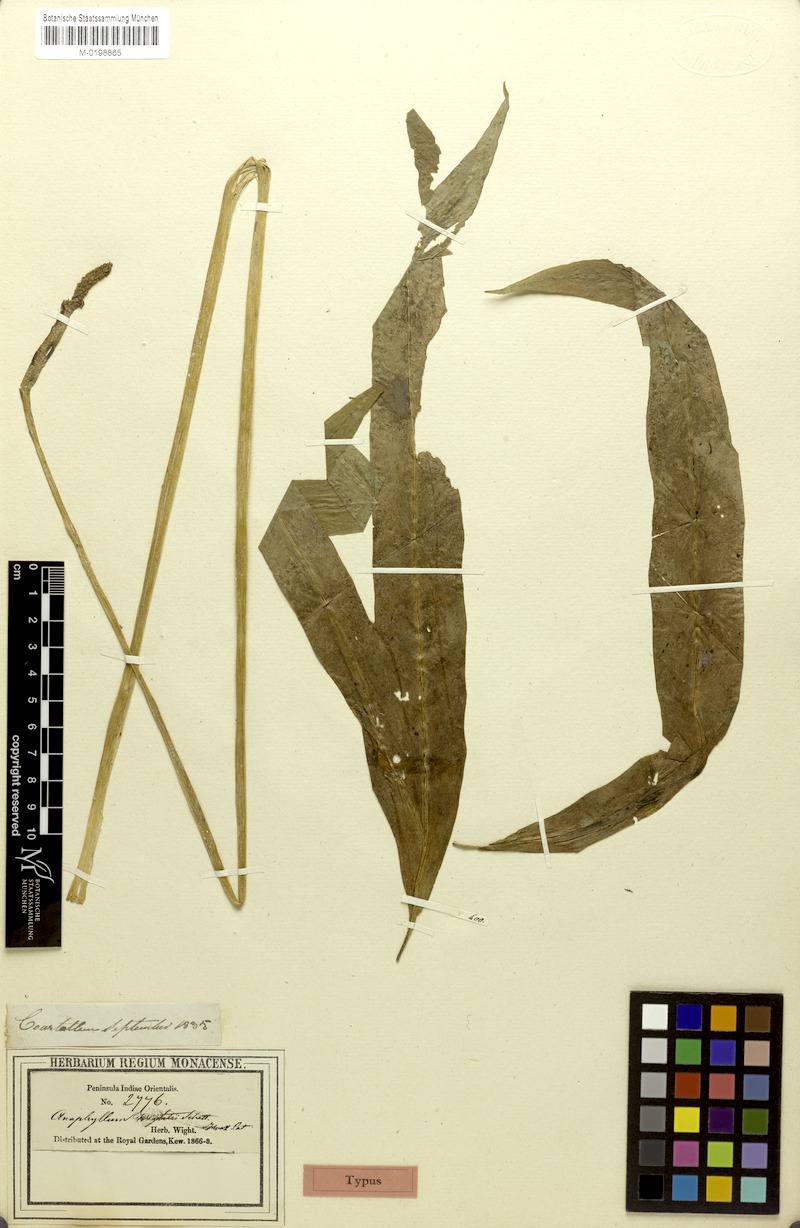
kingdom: Plantae
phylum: Tracheophyta
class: Liliopsida
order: Alismatales
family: Araceae
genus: Anaphyllum
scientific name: Anaphyllum wightii
